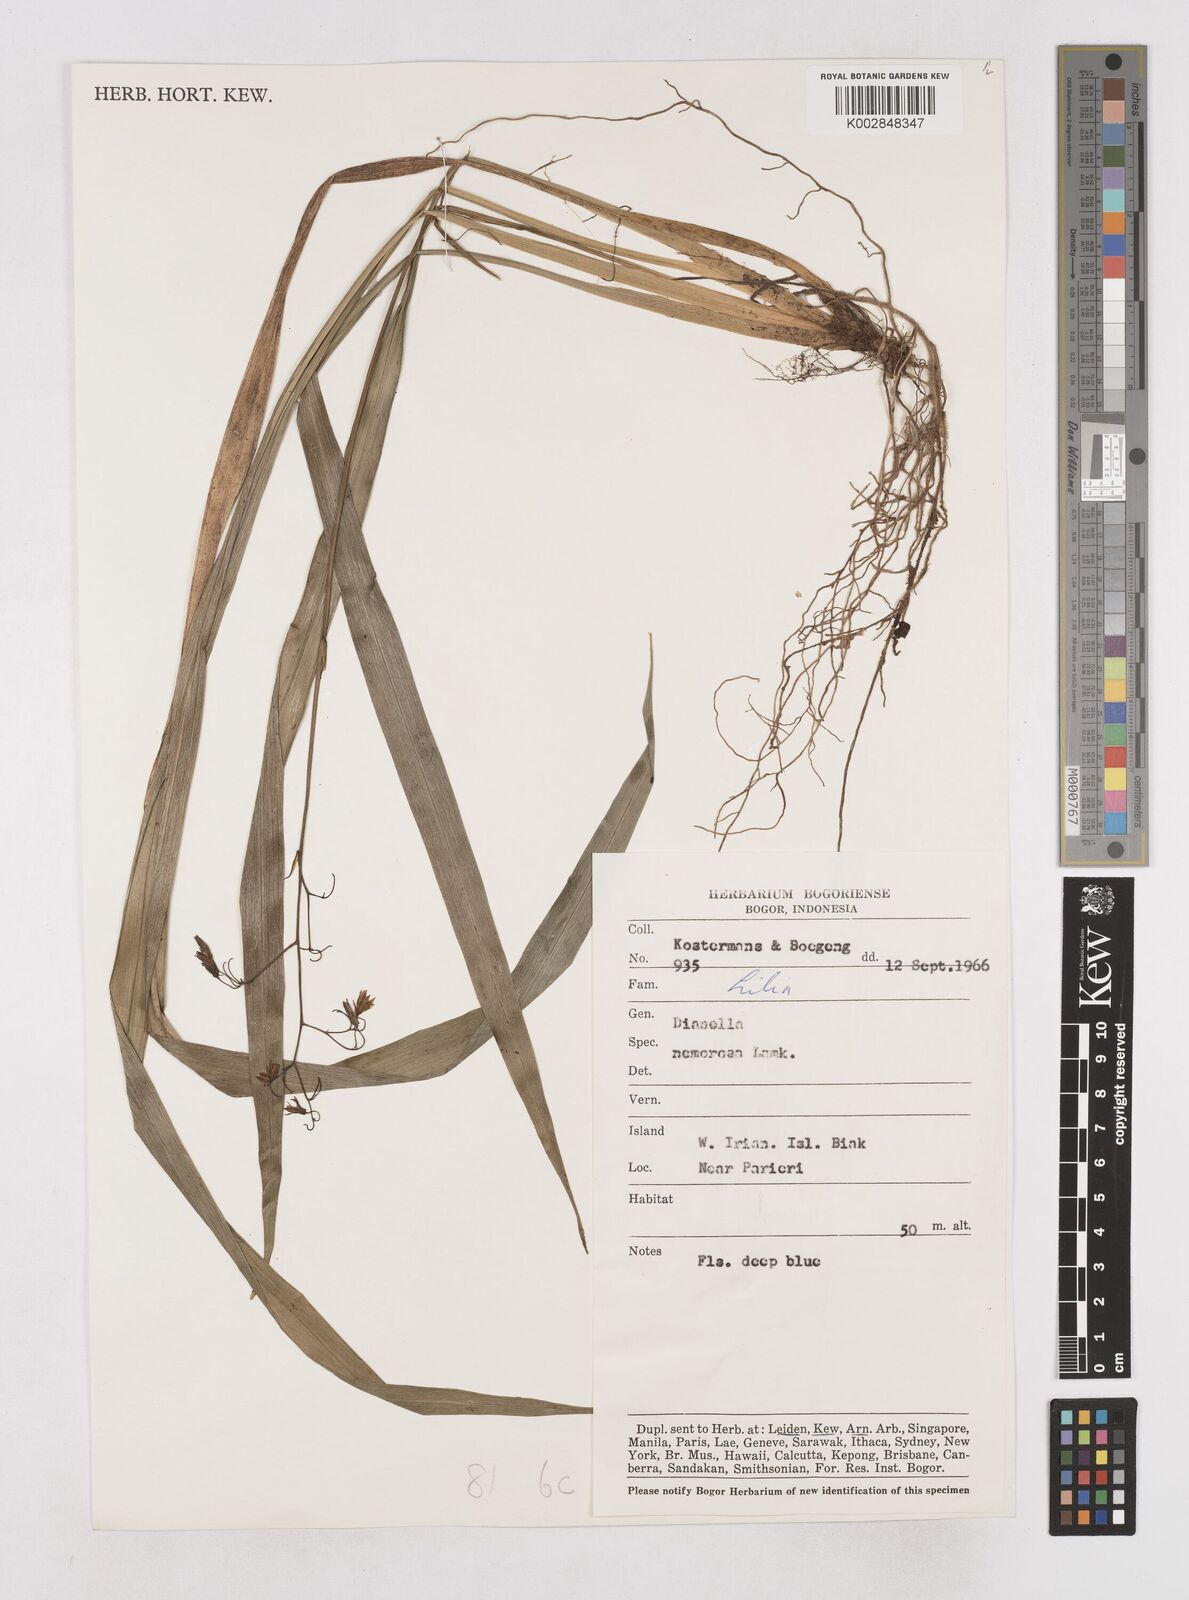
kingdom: Plantae
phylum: Tracheophyta
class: Liliopsida
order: Asparagales
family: Asphodelaceae
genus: Dianella
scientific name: Dianella ensifolia
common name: New zealand lilyplant
